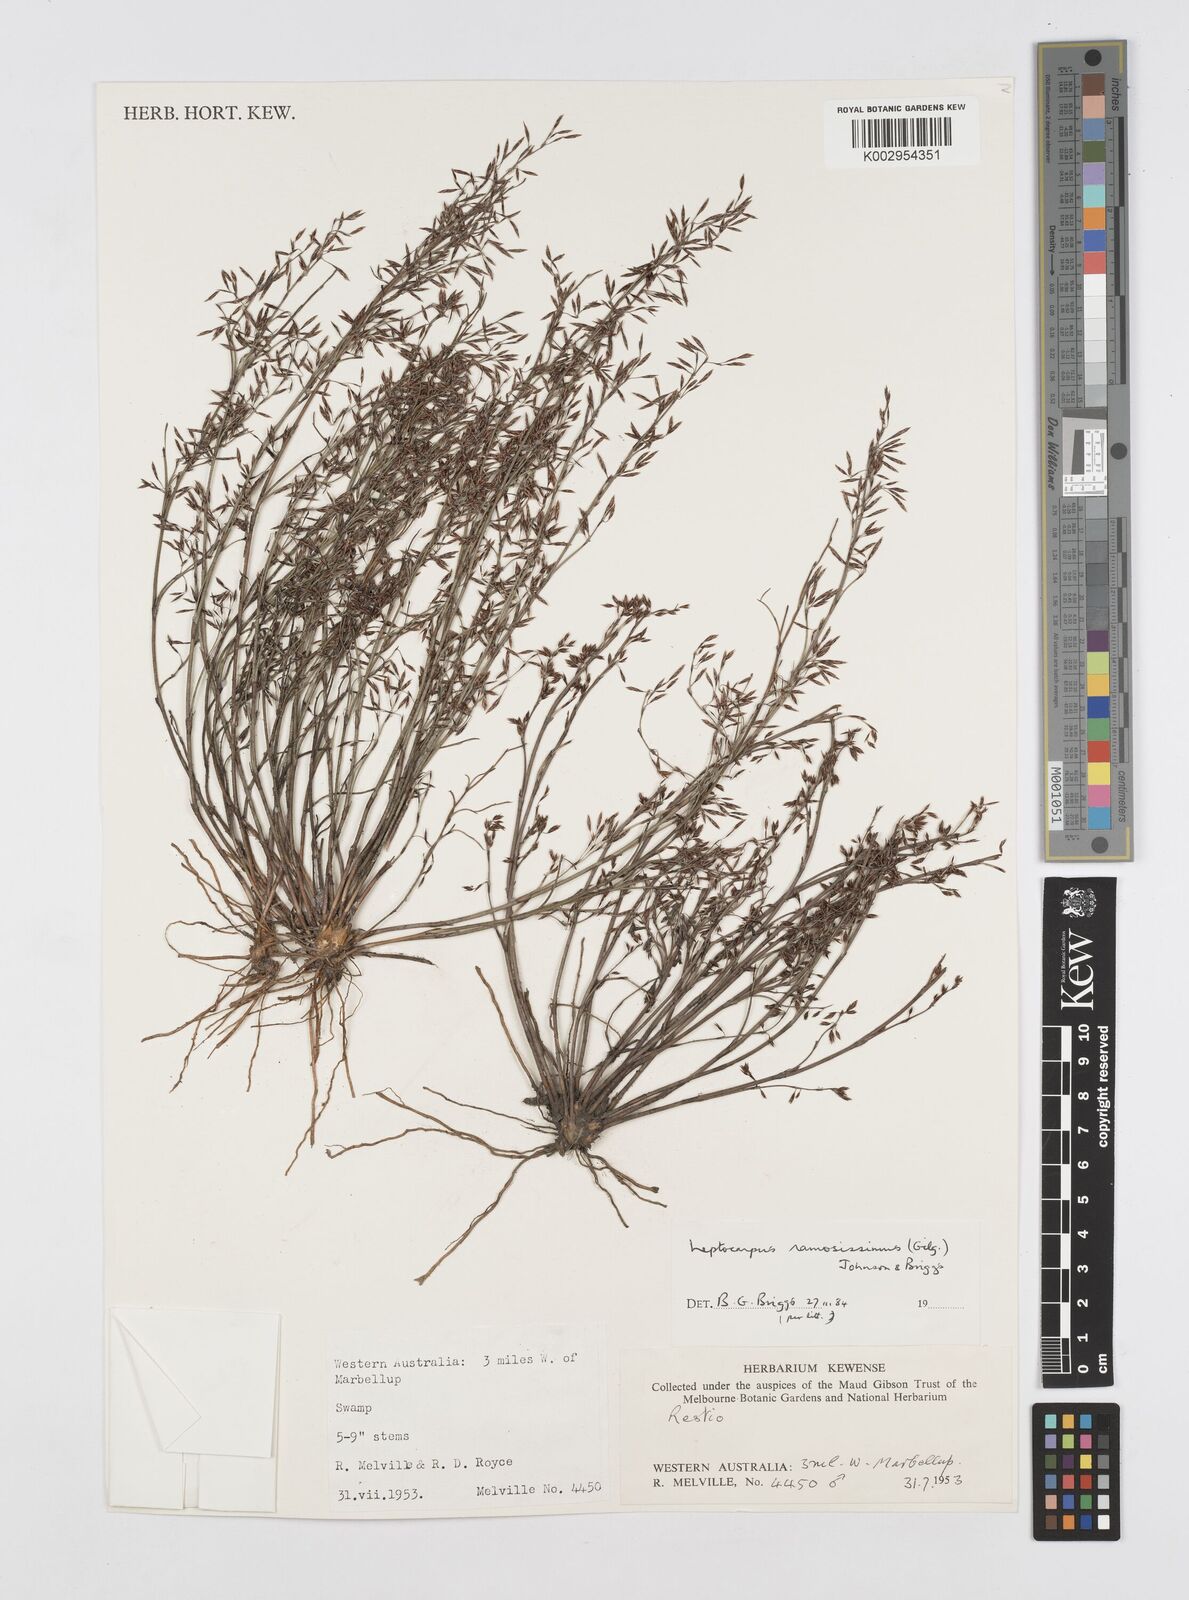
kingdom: Plantae
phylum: Tracheophyta
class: Liliopsida
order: Poales
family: Restionaceae
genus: Leptocarpus
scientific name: Leptocarpus
